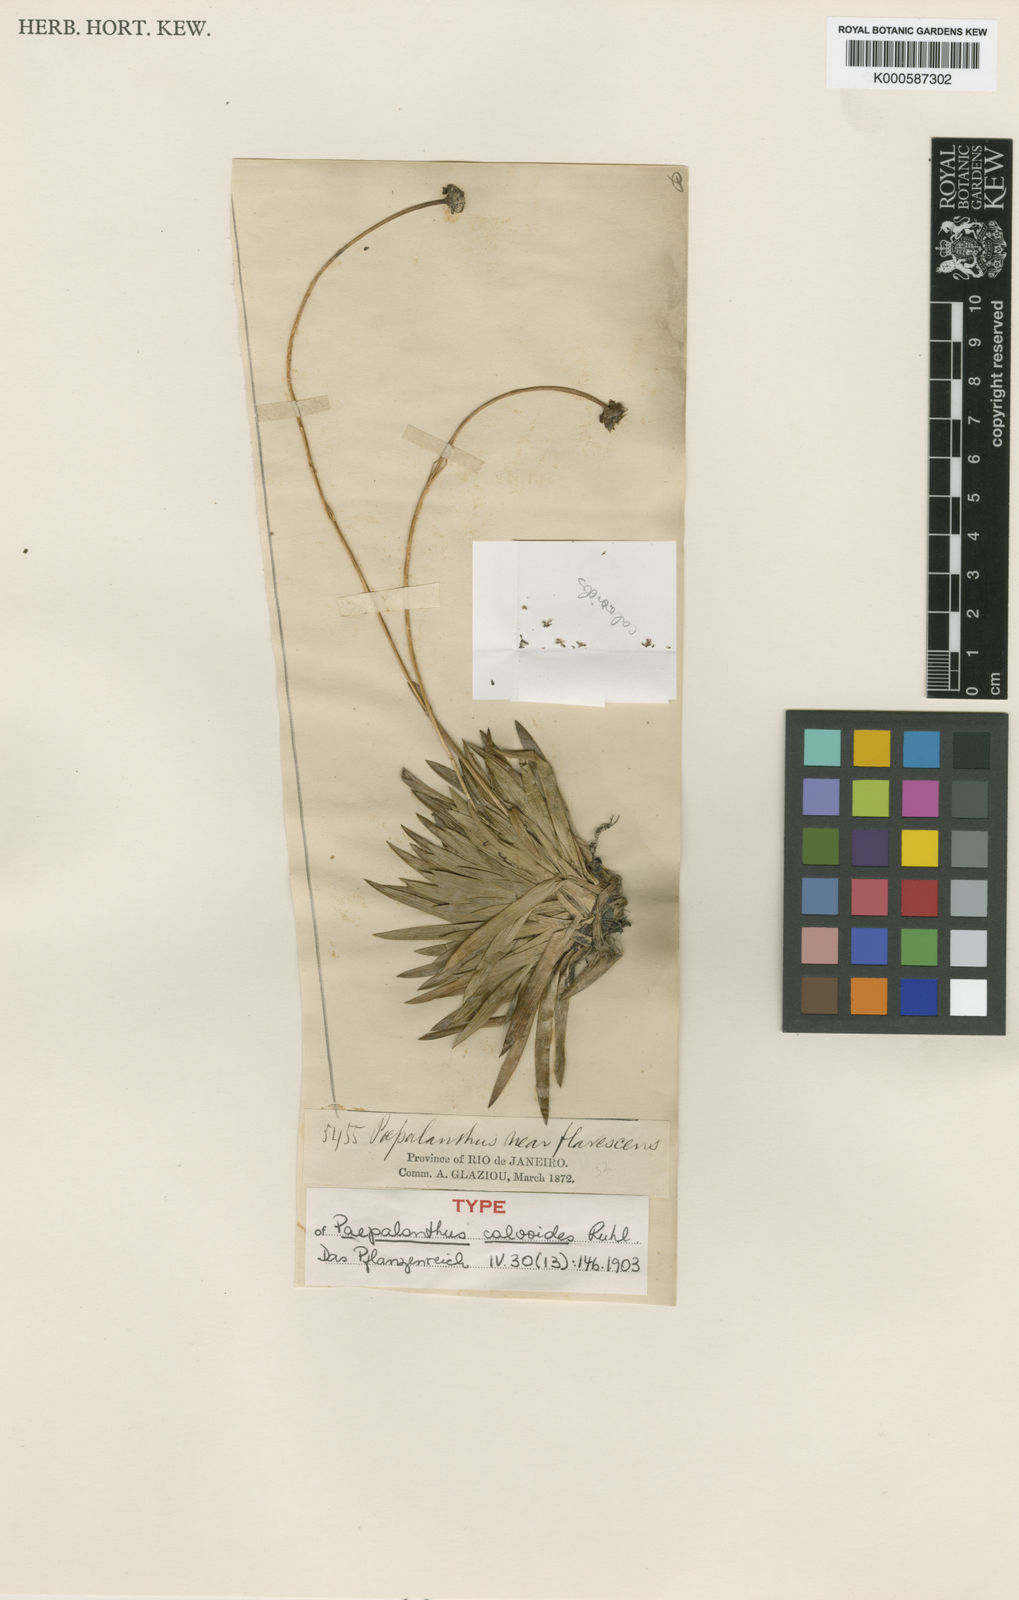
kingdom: Plantae
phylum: Tracheophyta
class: Liliopsida
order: Poales
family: Eriocaulaceae
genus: Paepalanthus
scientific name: Paepalanthus calvoides
